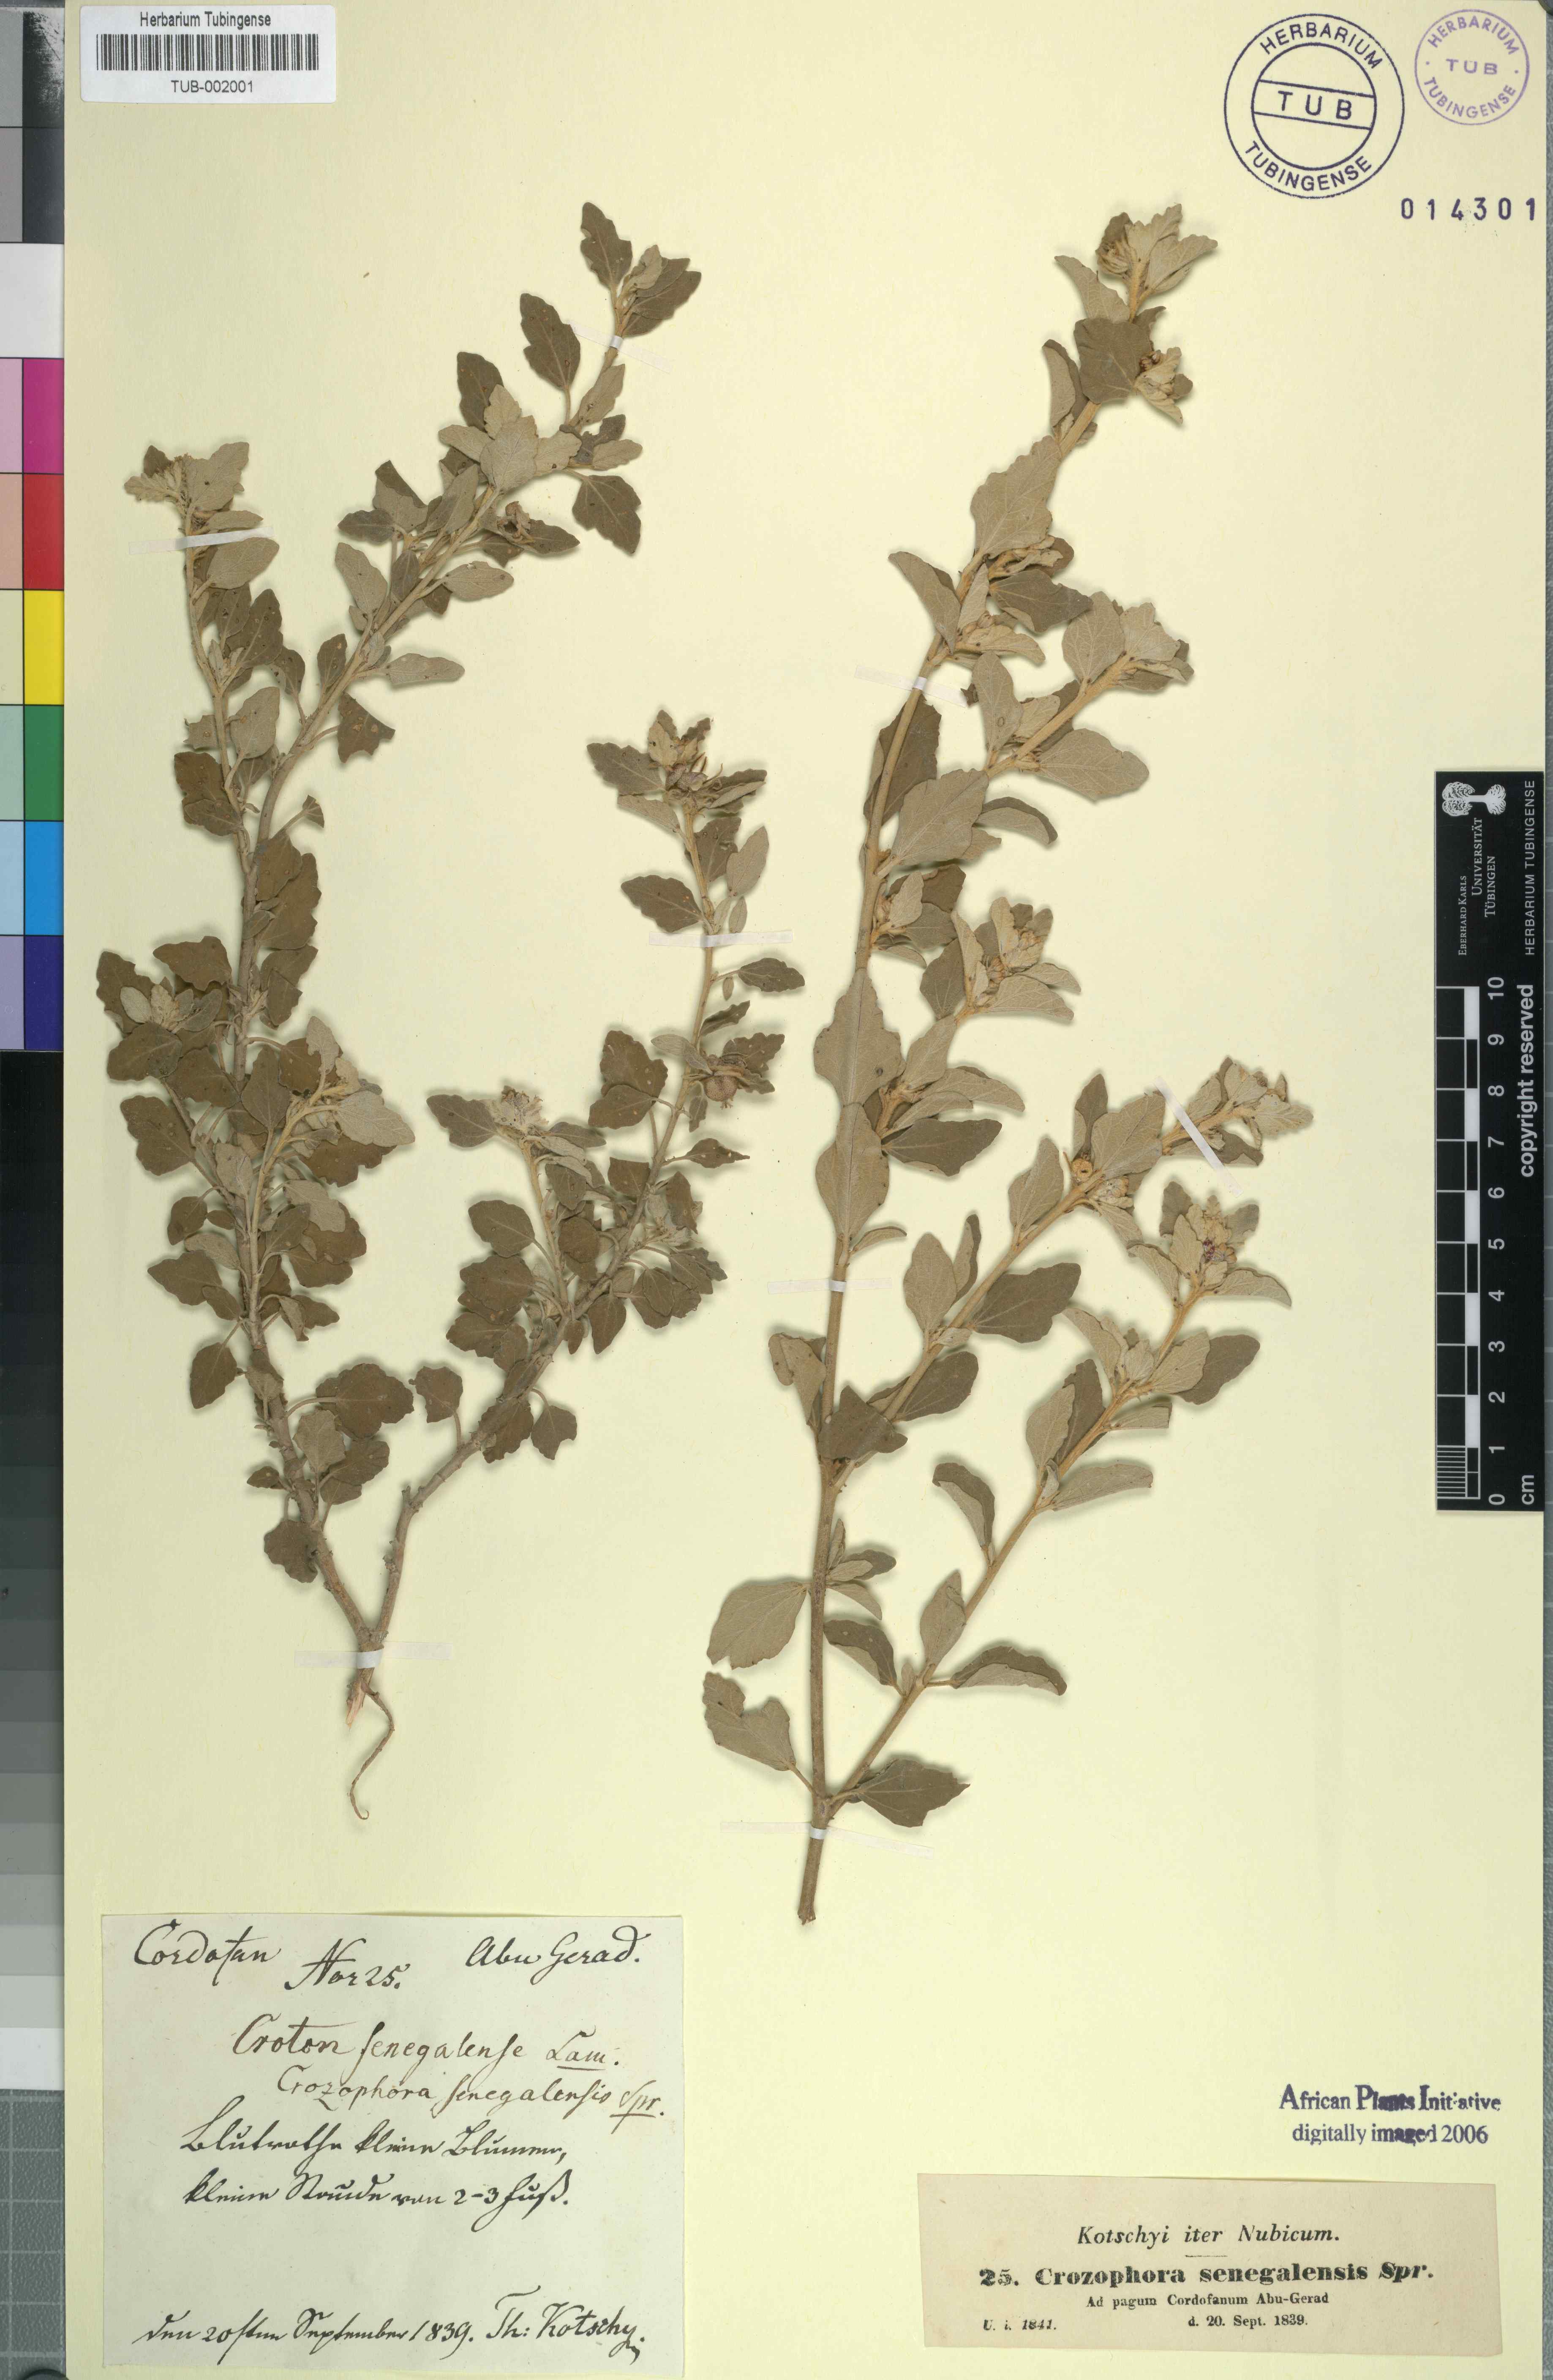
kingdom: Plantae
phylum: Tracheophyta
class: Magnoliopsida
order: Malpighiales
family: Euphorbiaceae
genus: Chrozophora
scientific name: Chrozophora plicata
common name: Giradol
